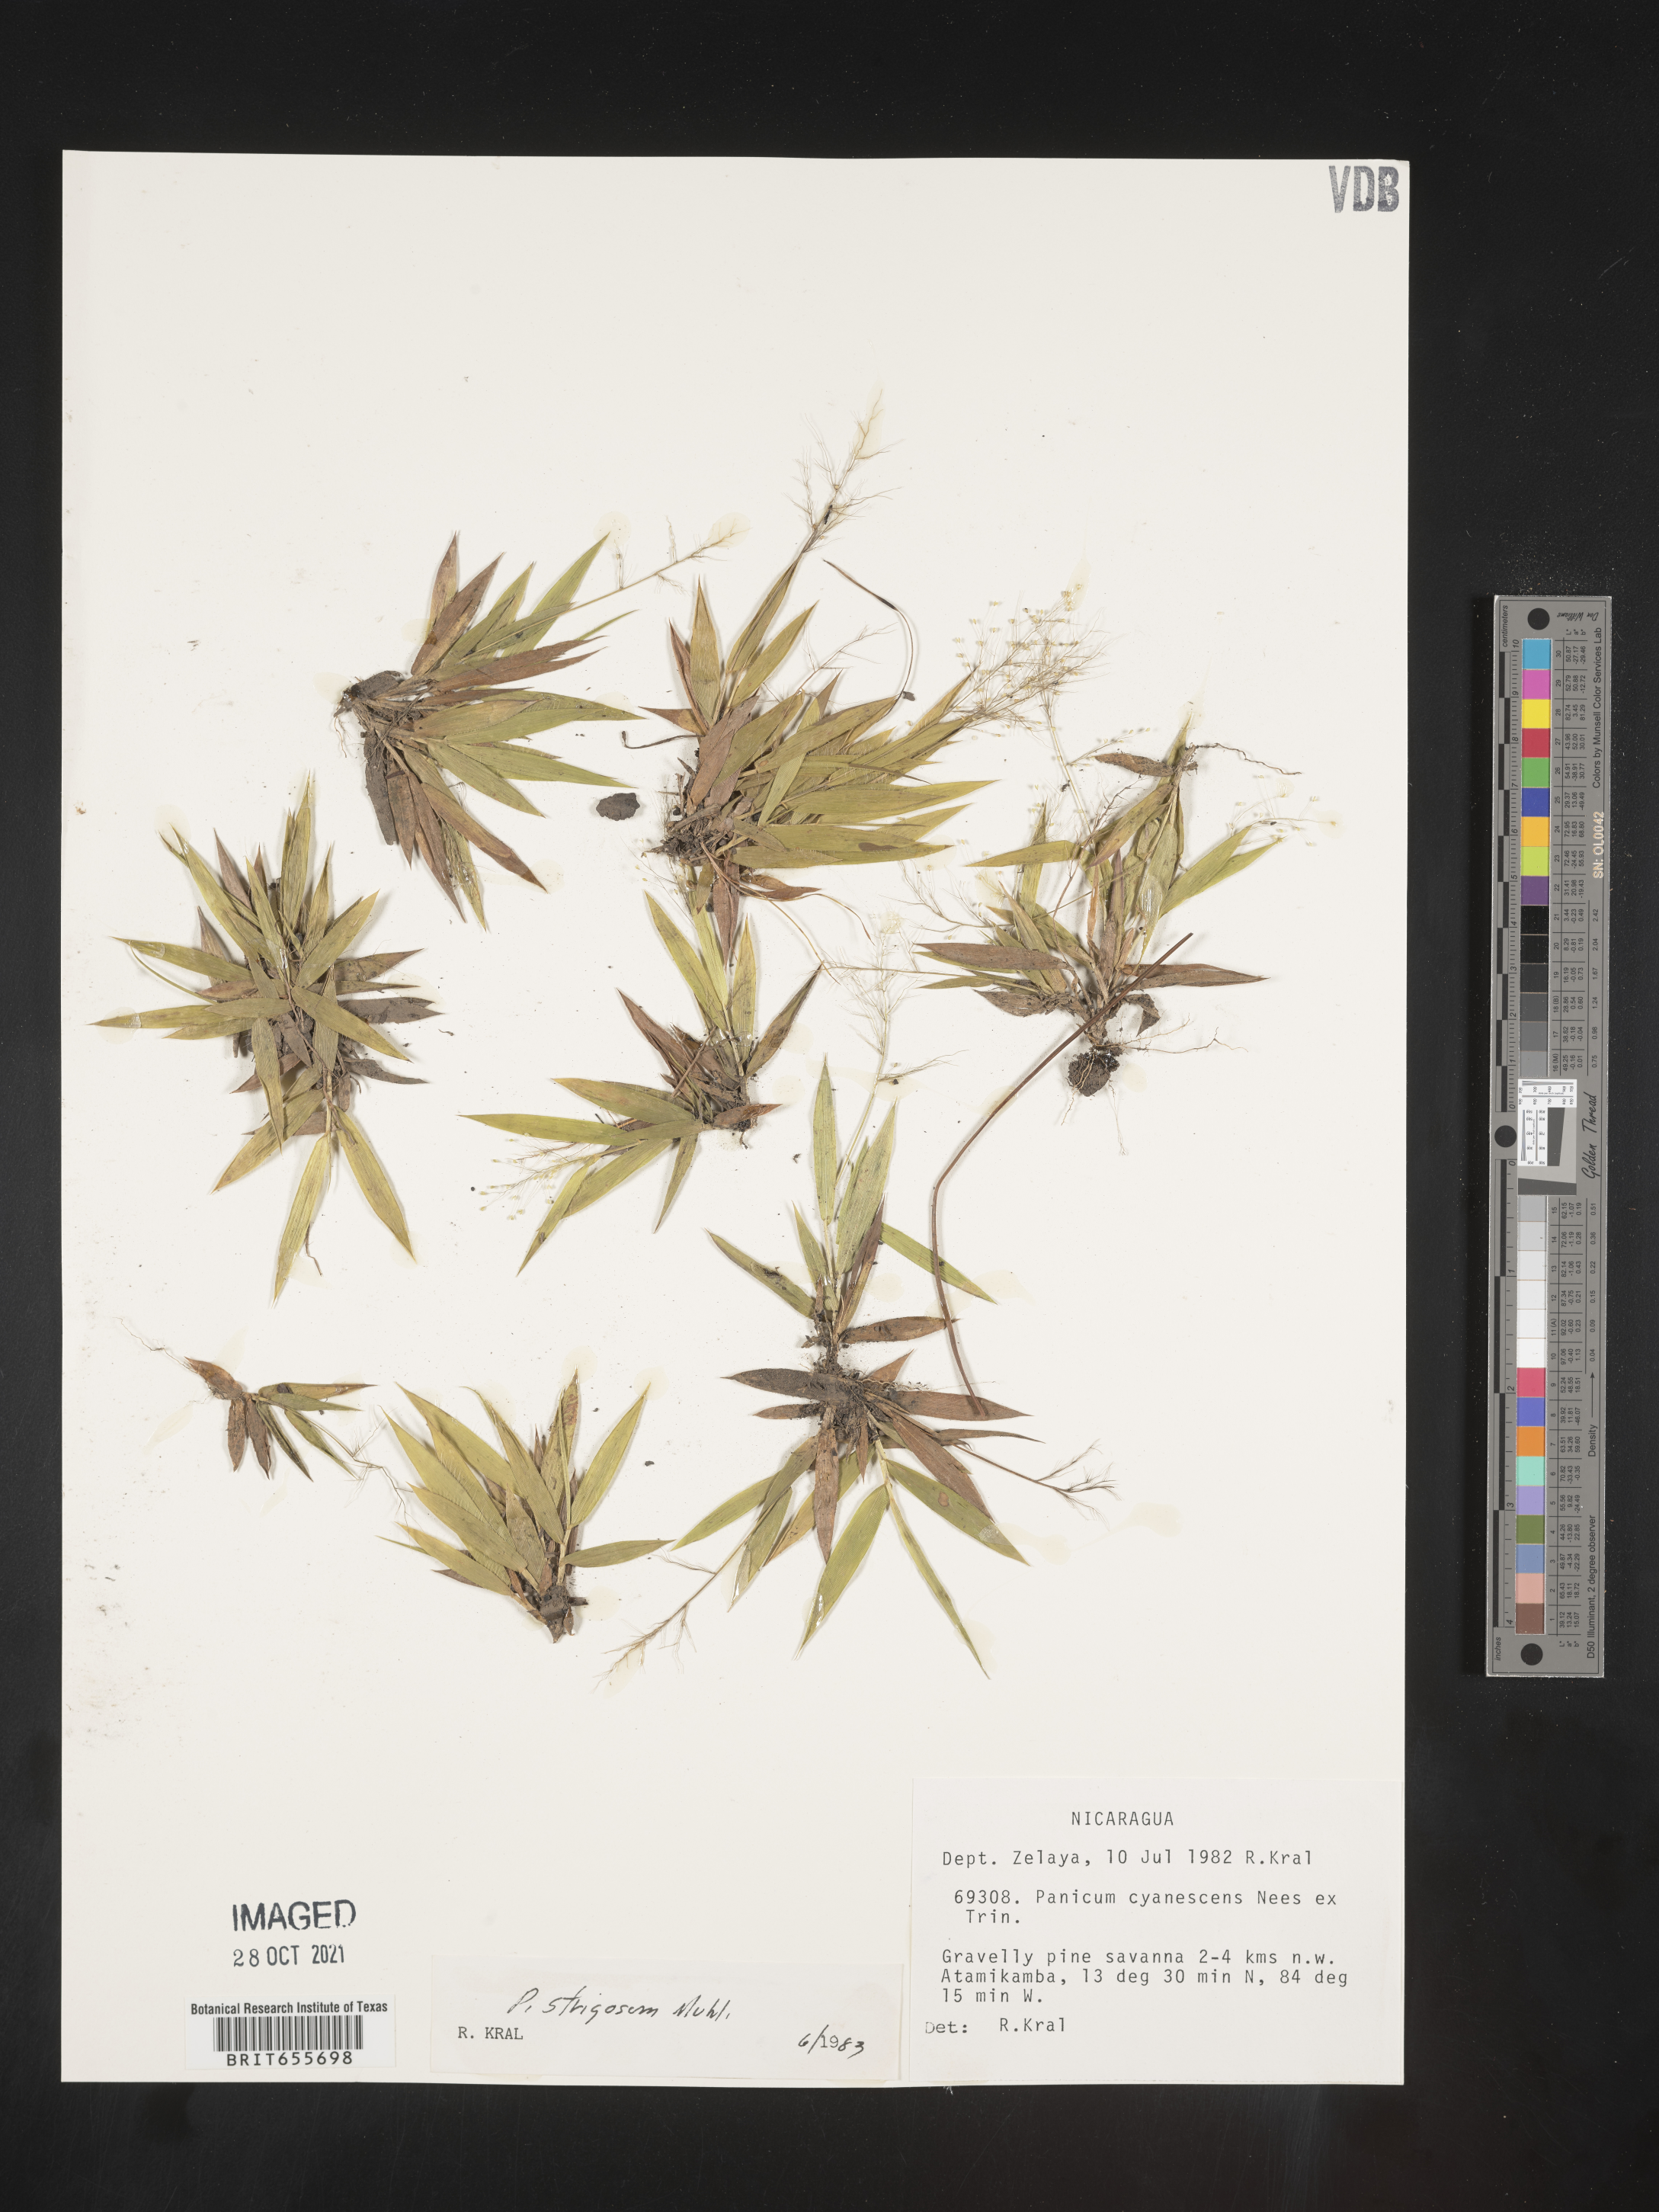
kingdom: Plantae
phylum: Tracheophyta
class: Liliopsida
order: Poales
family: Poaceae
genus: Panicum
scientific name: Panicum
